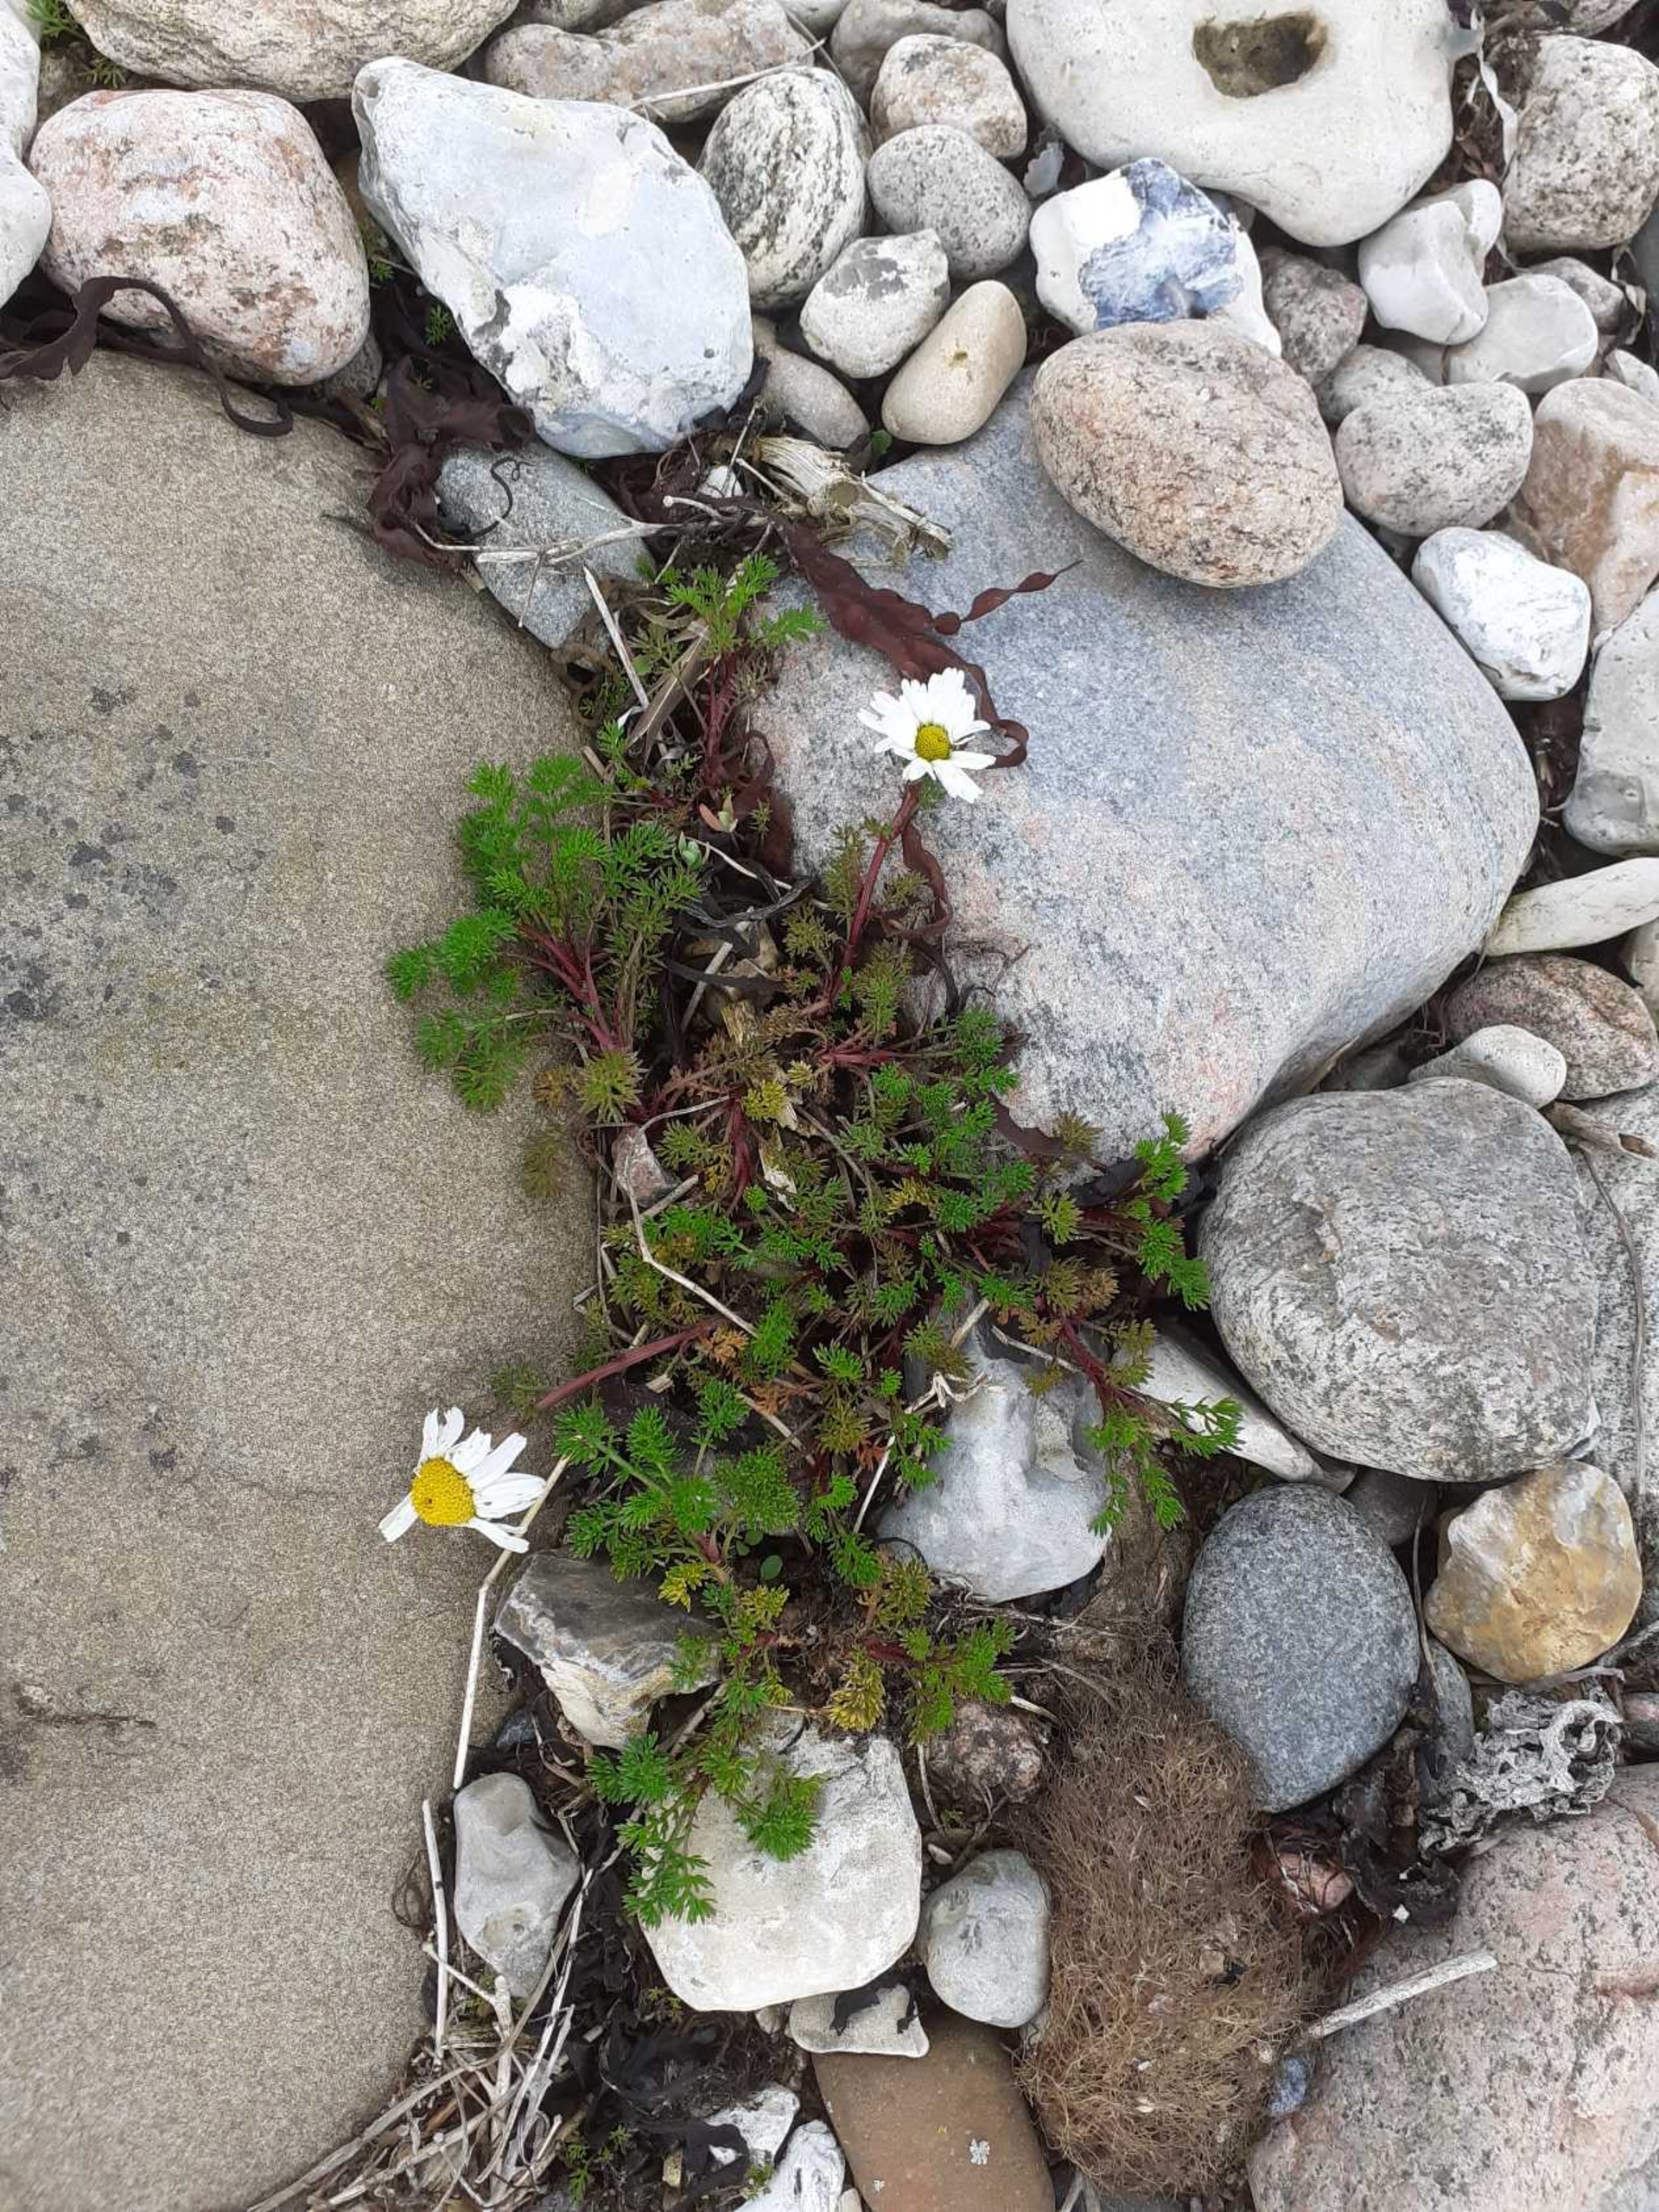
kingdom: Plantae
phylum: Tracheophyta
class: Magnoliopsida
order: Asterales
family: Asteraceae
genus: Tripleurospermum
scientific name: Tripleurospermum maritimum
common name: Strand-kamille
